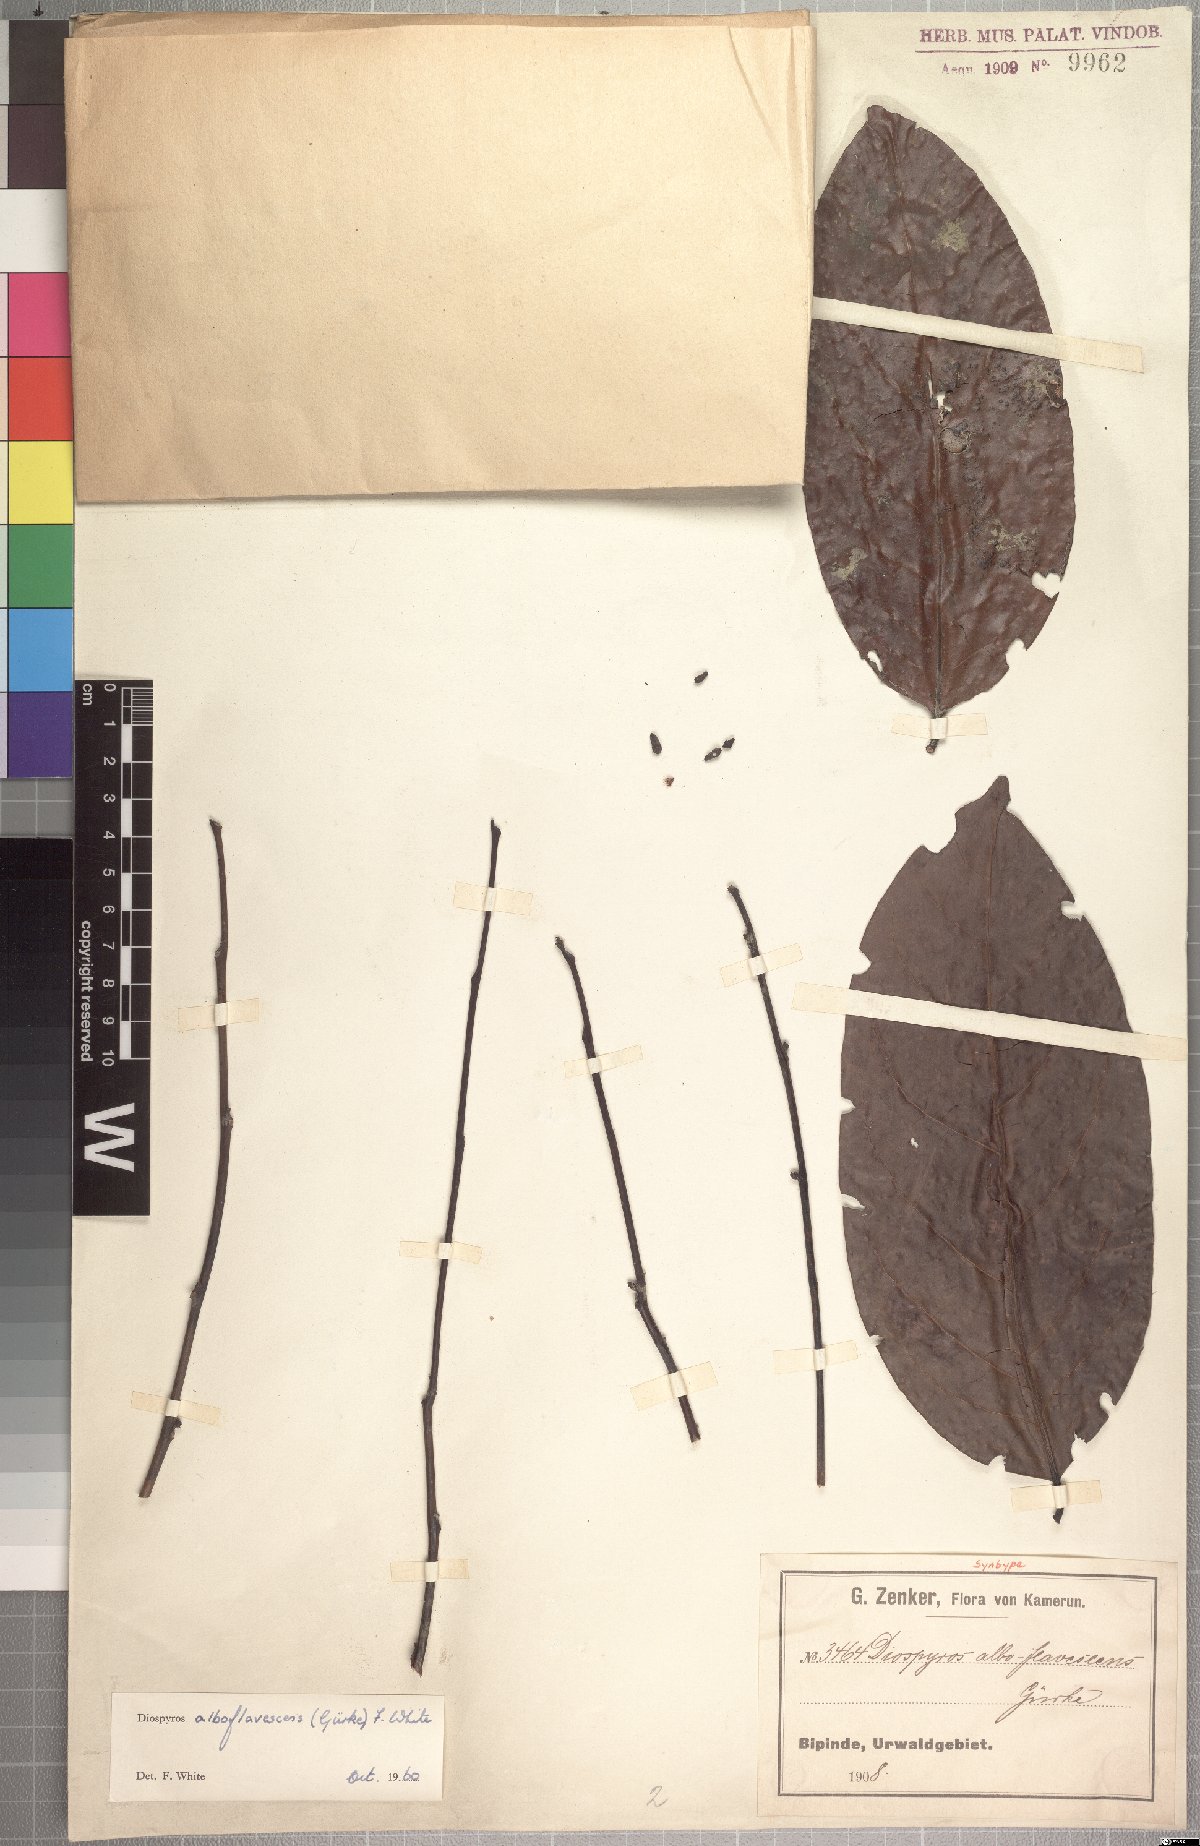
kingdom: Plantae
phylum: Tracheophyta
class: Magnoliopsida
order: Ericales
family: Ebenaceae
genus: Diospyros
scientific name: Diospyros alboflavescens
